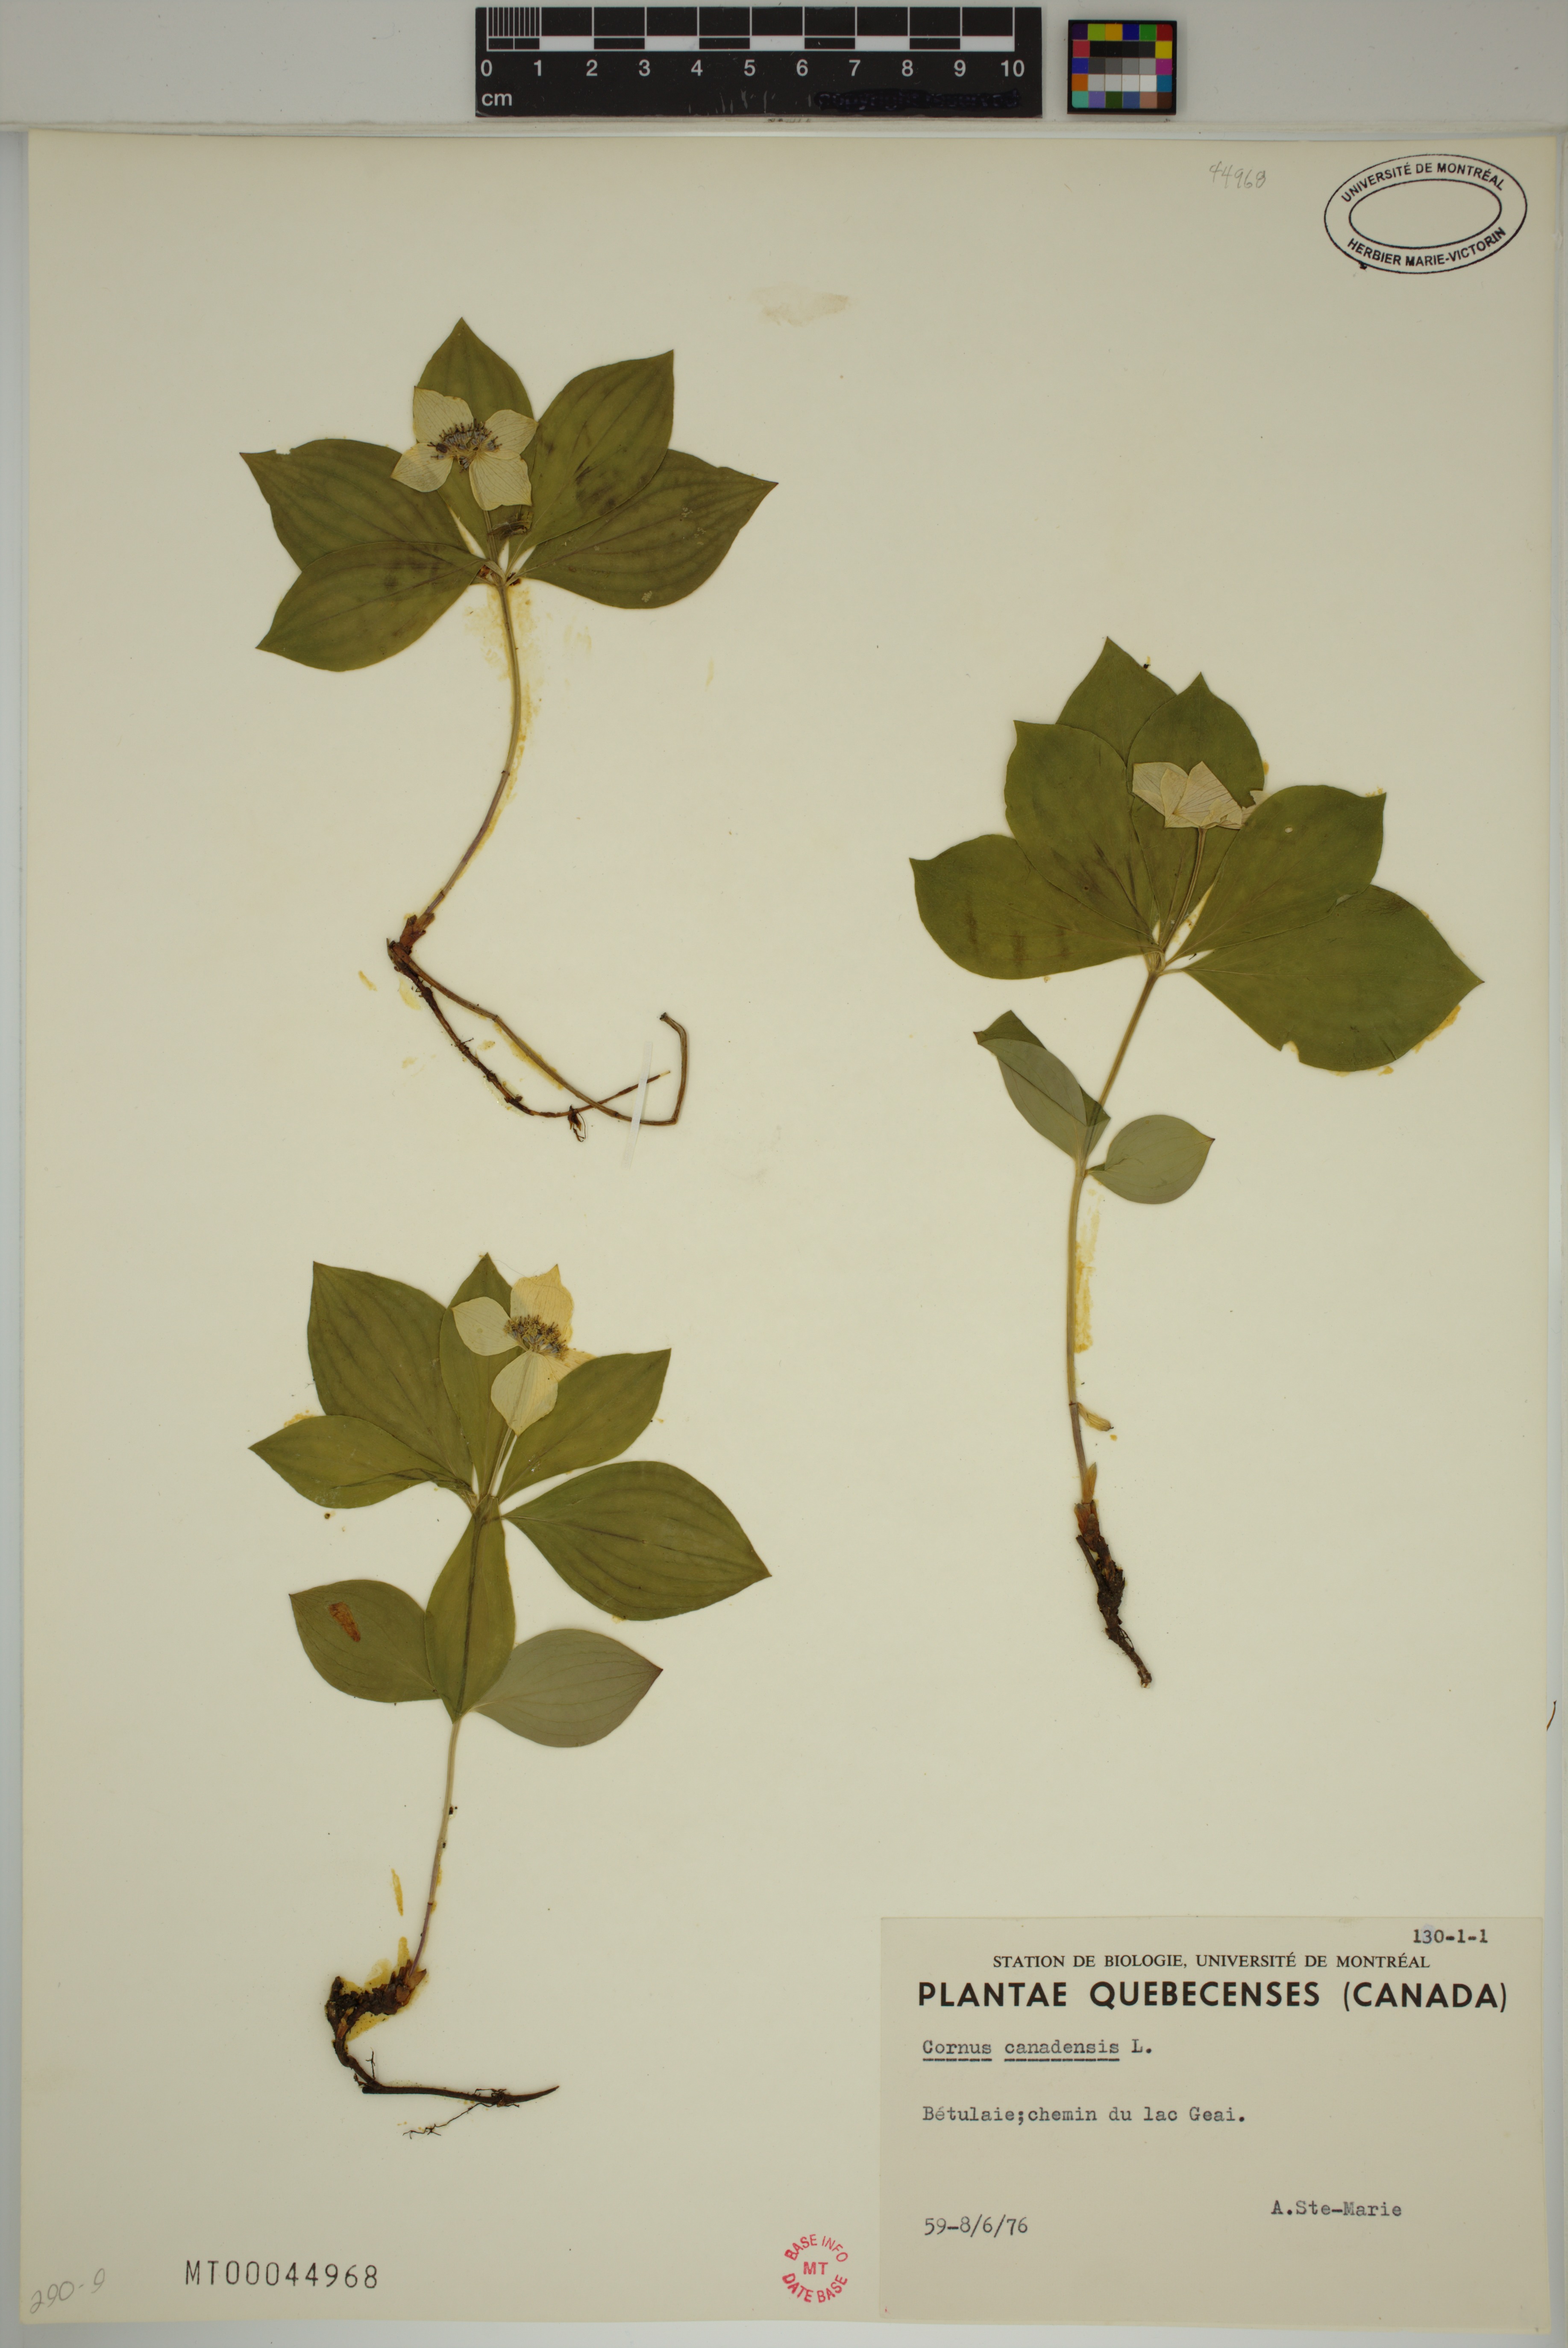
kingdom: Plantae
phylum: Tracheophyta
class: Magnoliopsida
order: Cornales
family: Cornaceae
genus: Cornus
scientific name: Cornus canadensis
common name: Creeping dogwood
